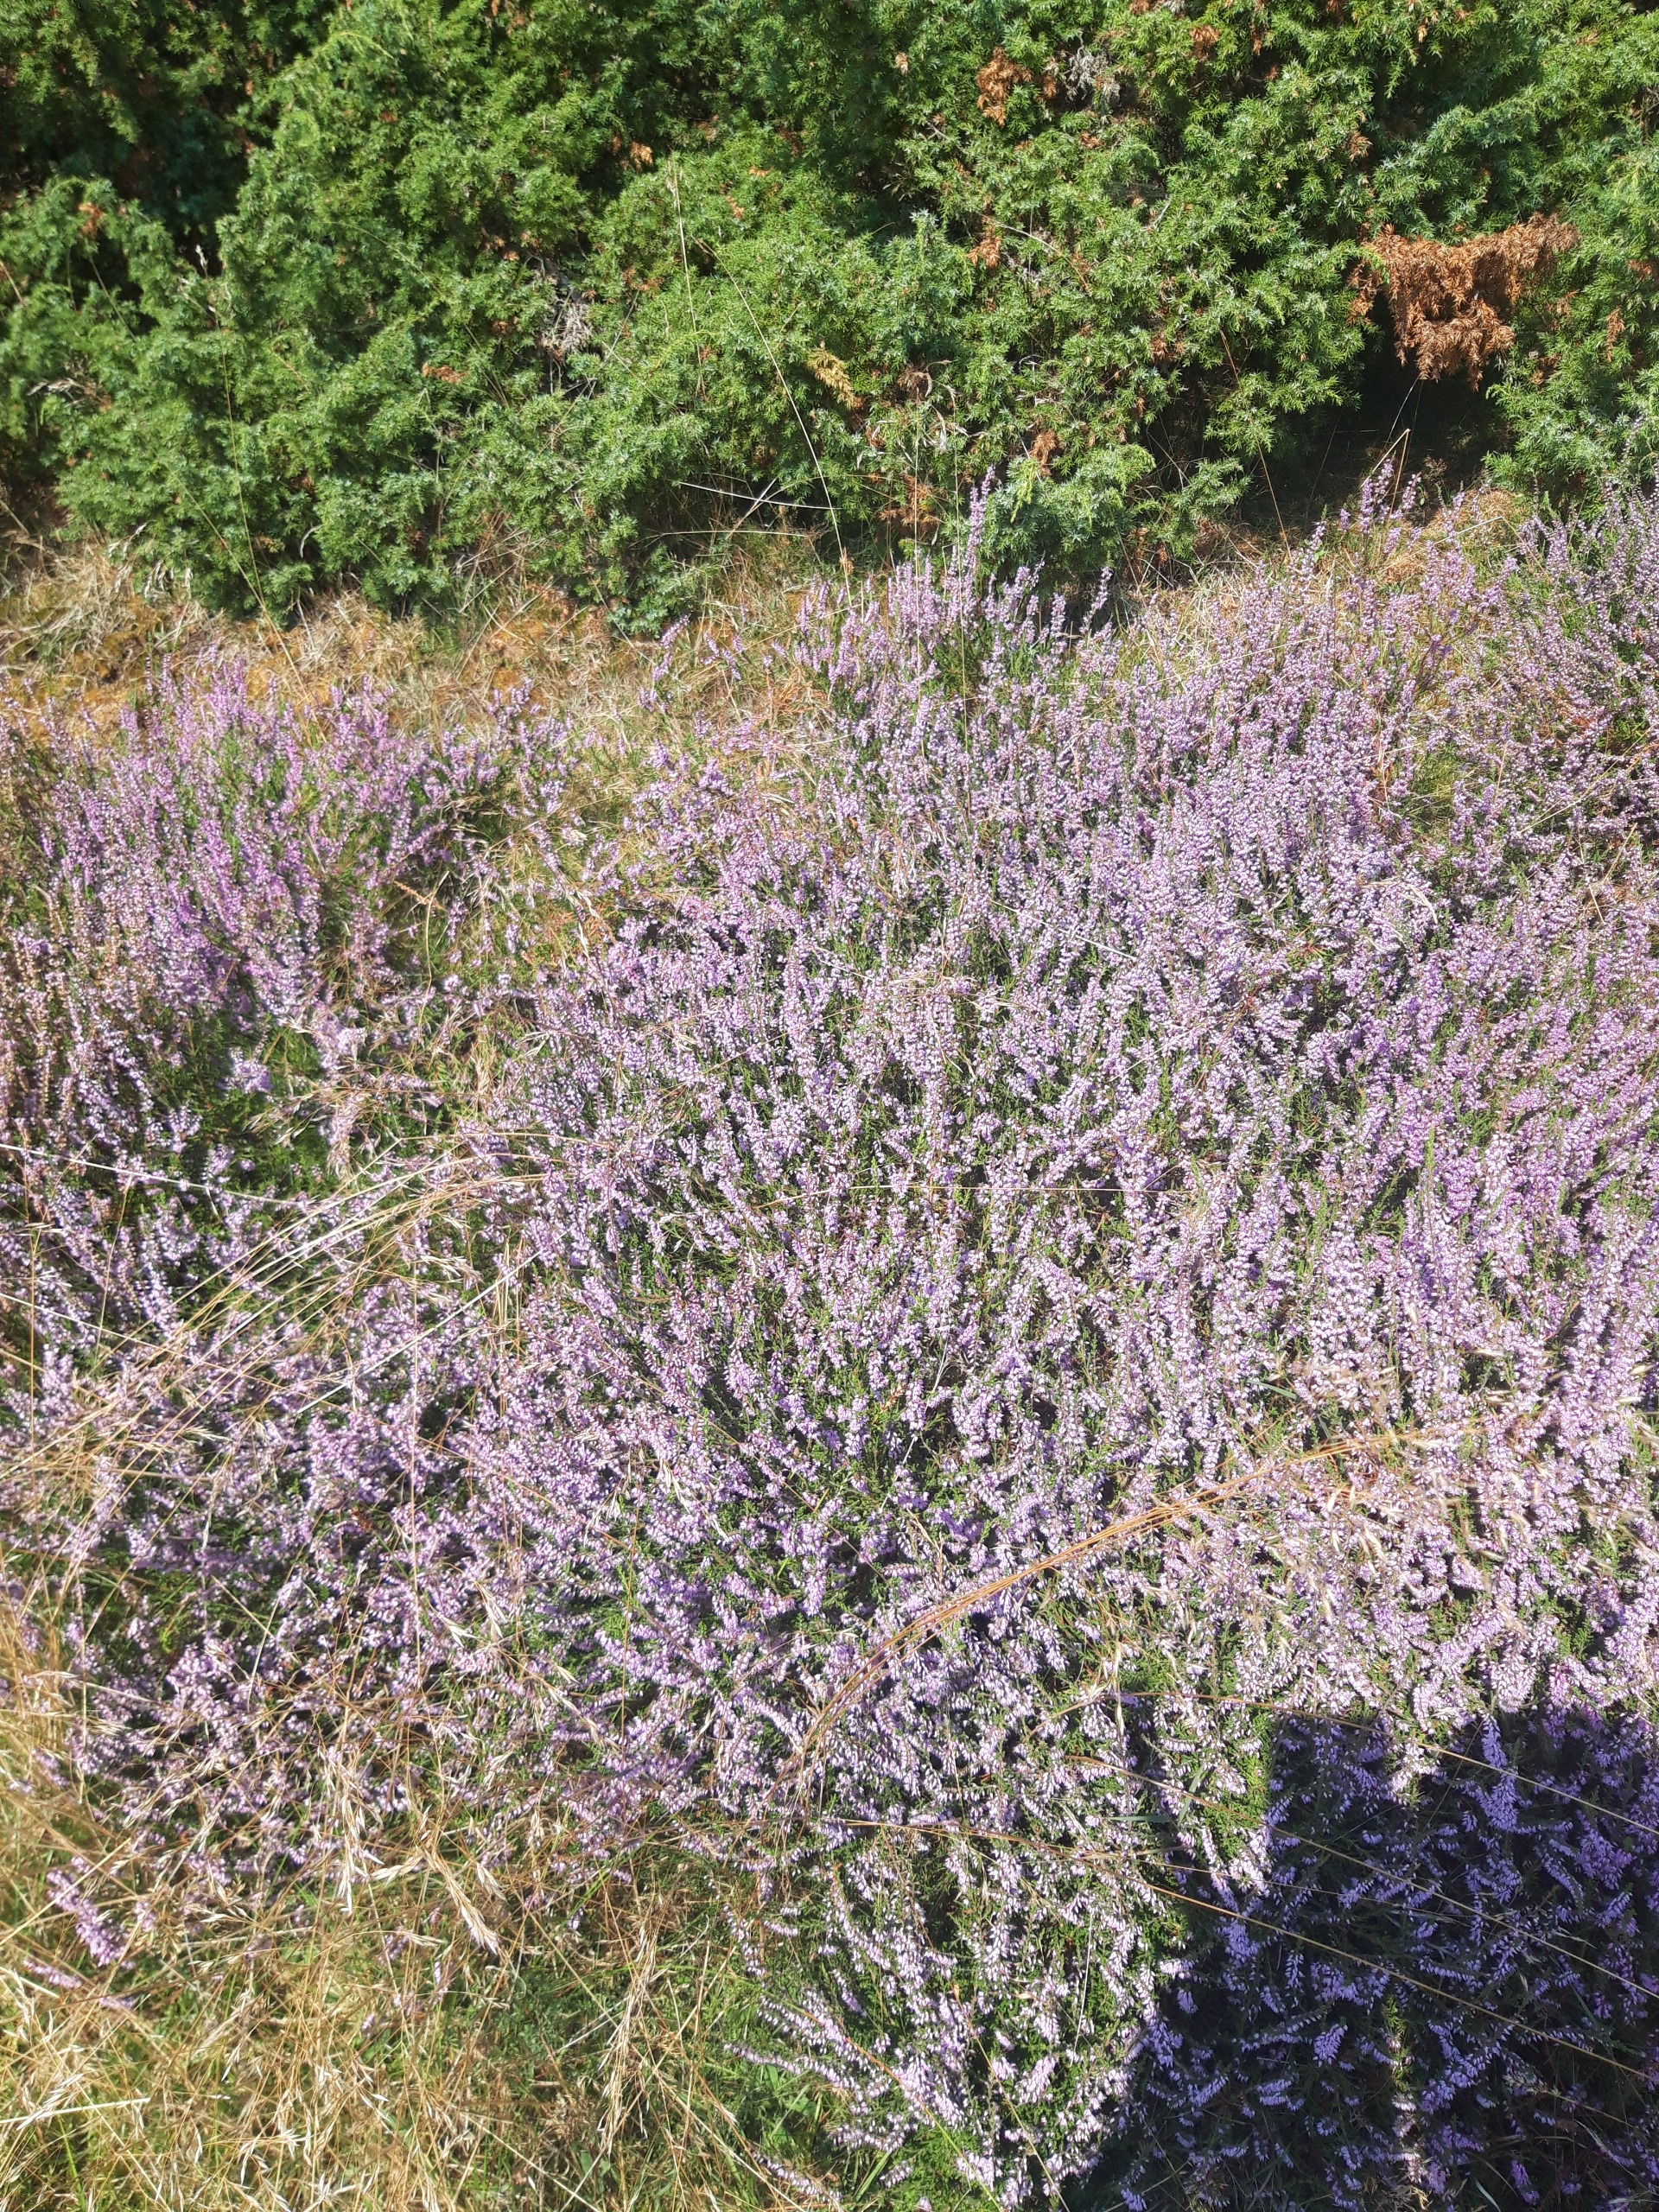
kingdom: Plantae
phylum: Tracheophyta
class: Magnoliopsida
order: Ericales
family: Ericaceae
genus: Calluna
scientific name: Calluna vulgaris
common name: Hedelyng
